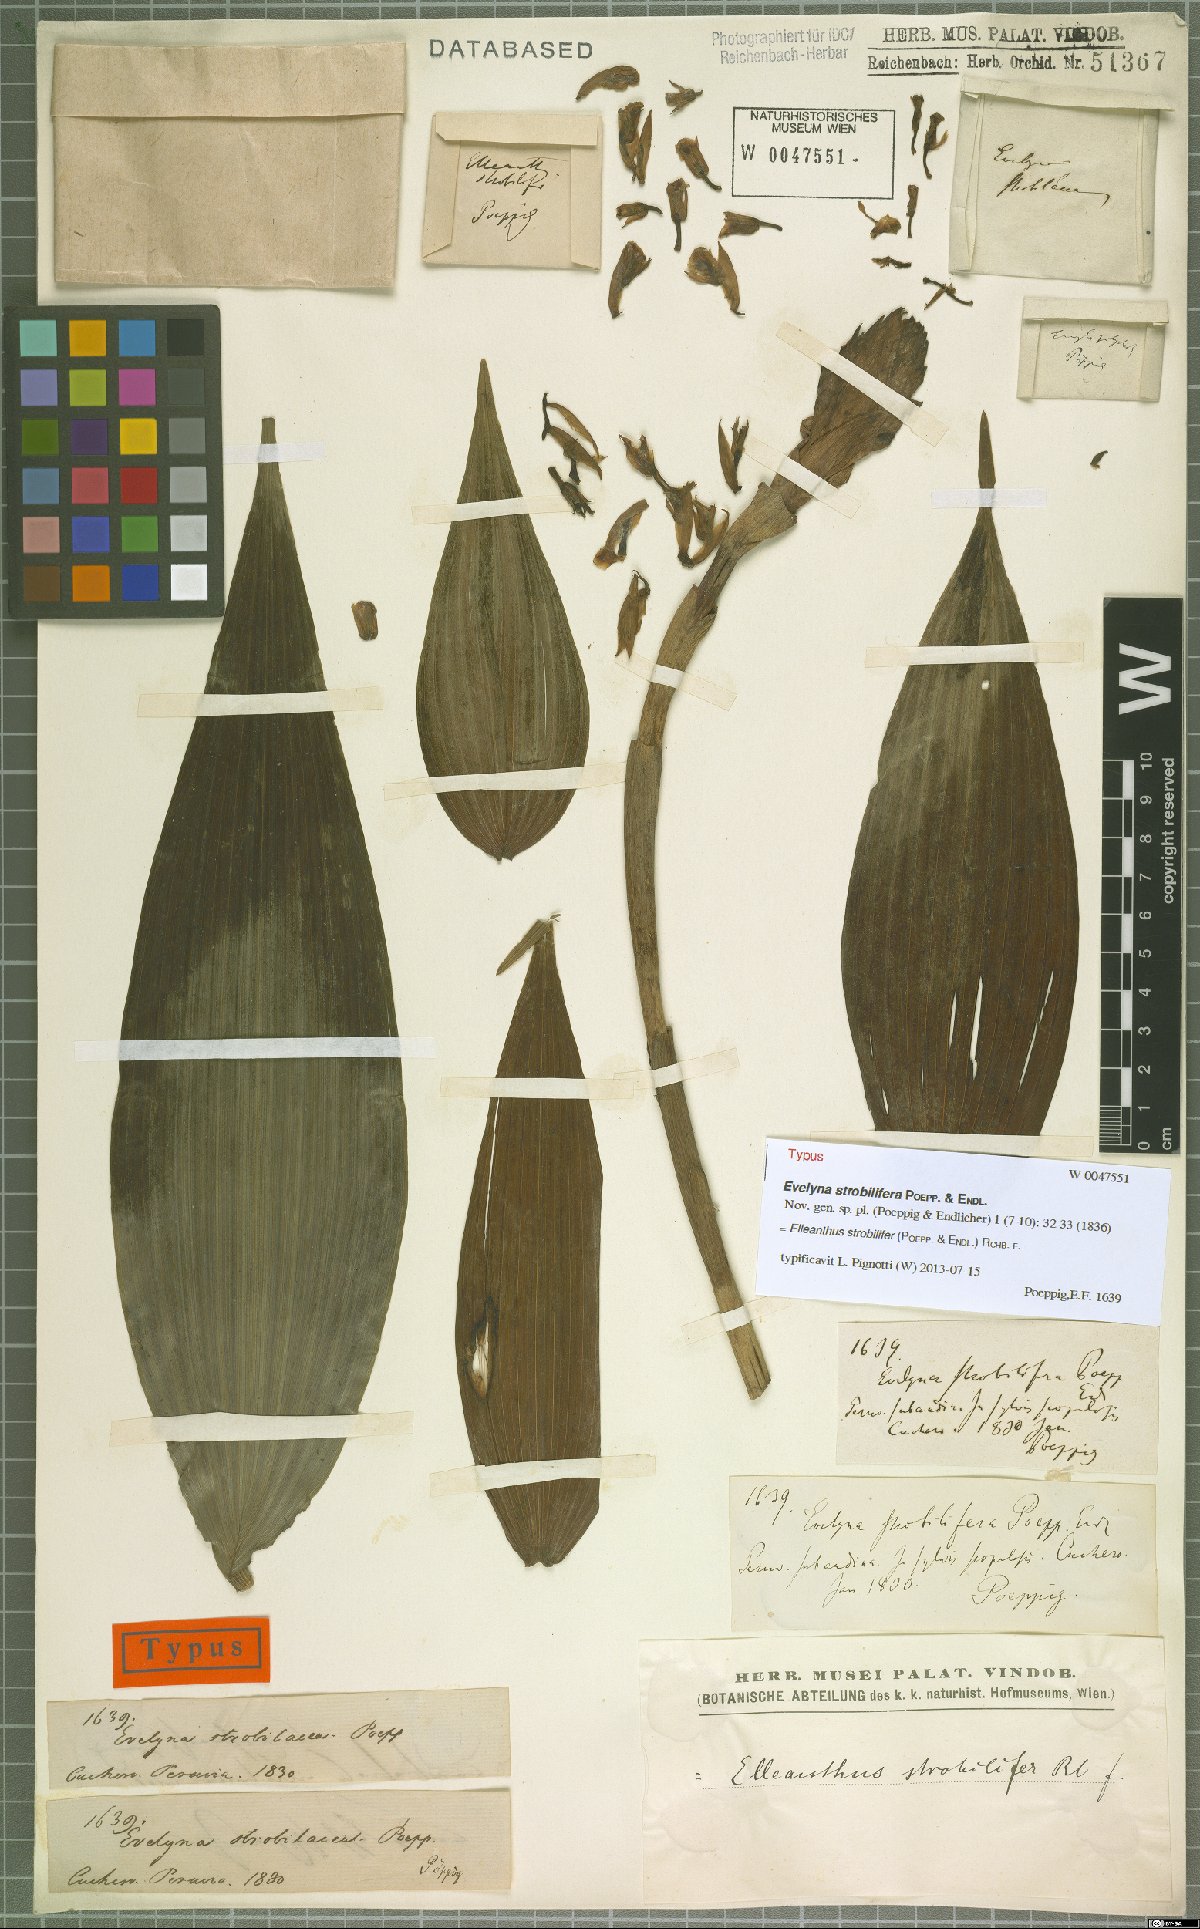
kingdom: Plantae
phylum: Tracheophyta
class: Liliopsida
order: Asparagales
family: Orchidaceae
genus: Elleanthus
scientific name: Elleanthus strobilifer
